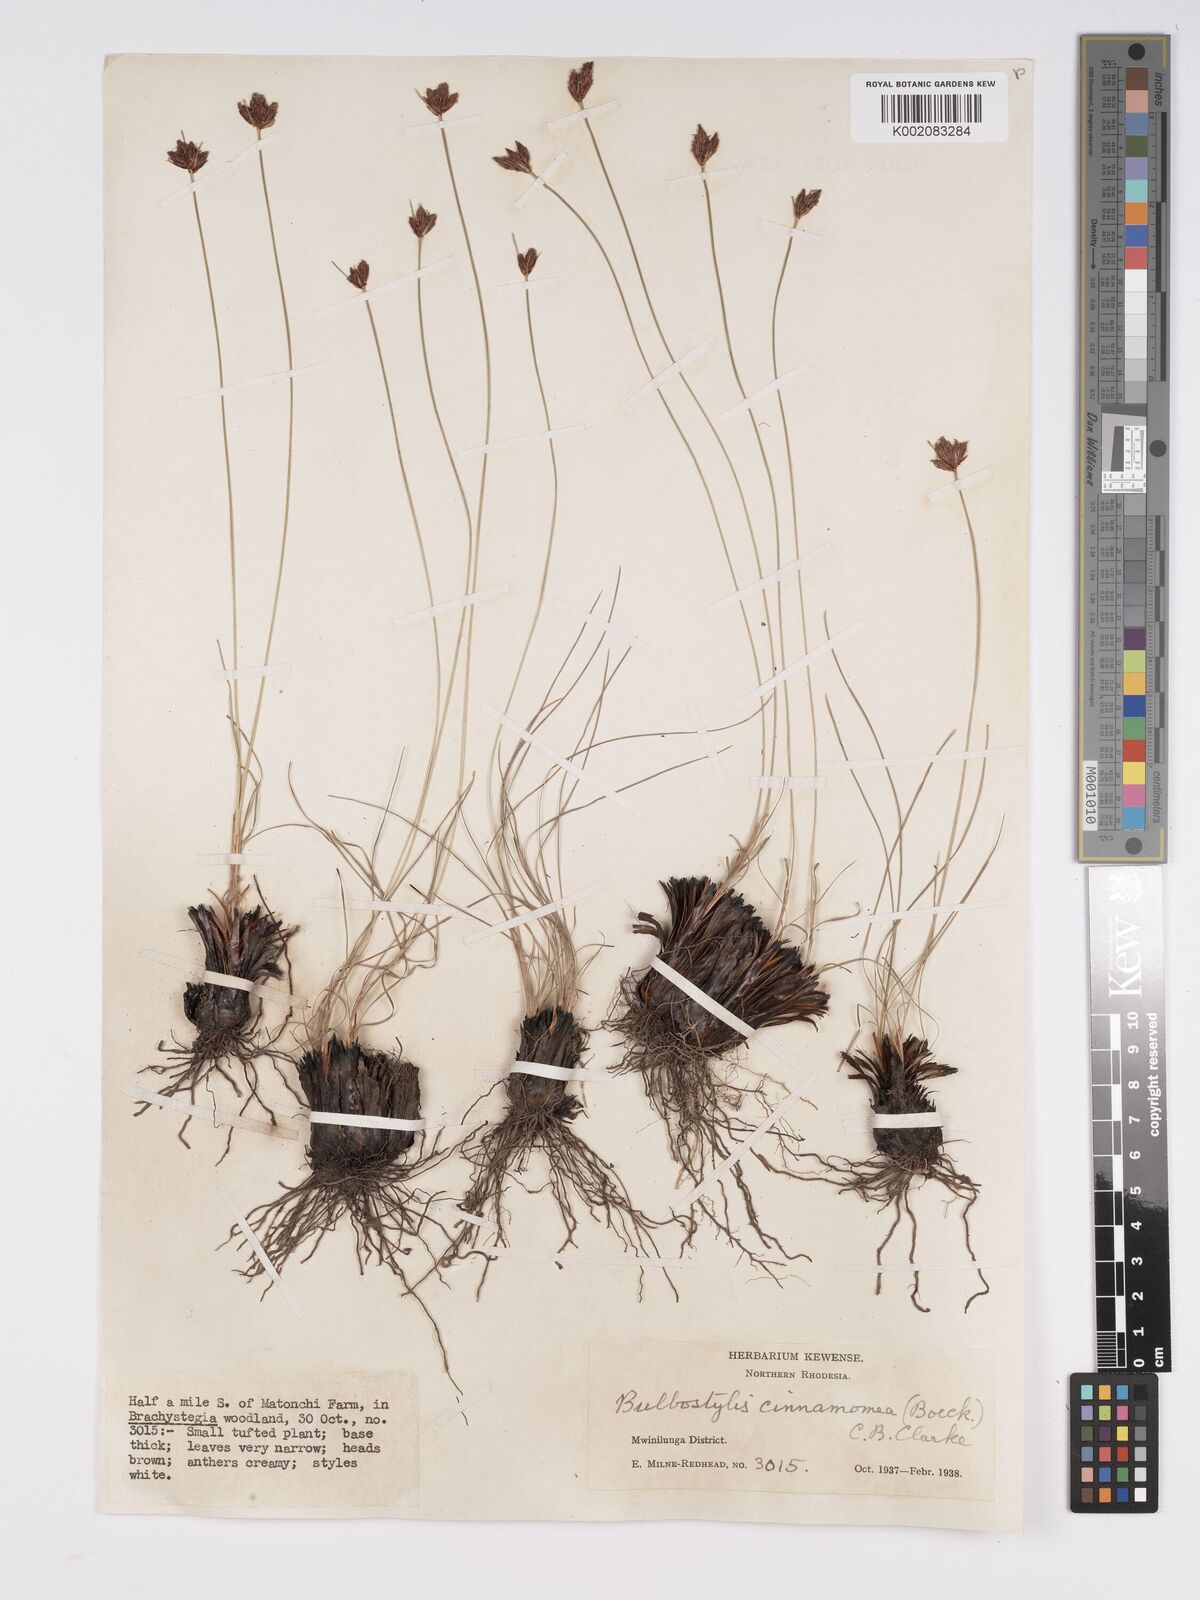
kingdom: Plantae
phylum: Tracheophyta
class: Liliopsida
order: Poales
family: Cyperaceae
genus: Bulbostylis
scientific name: Bulbostylis schoenoides
